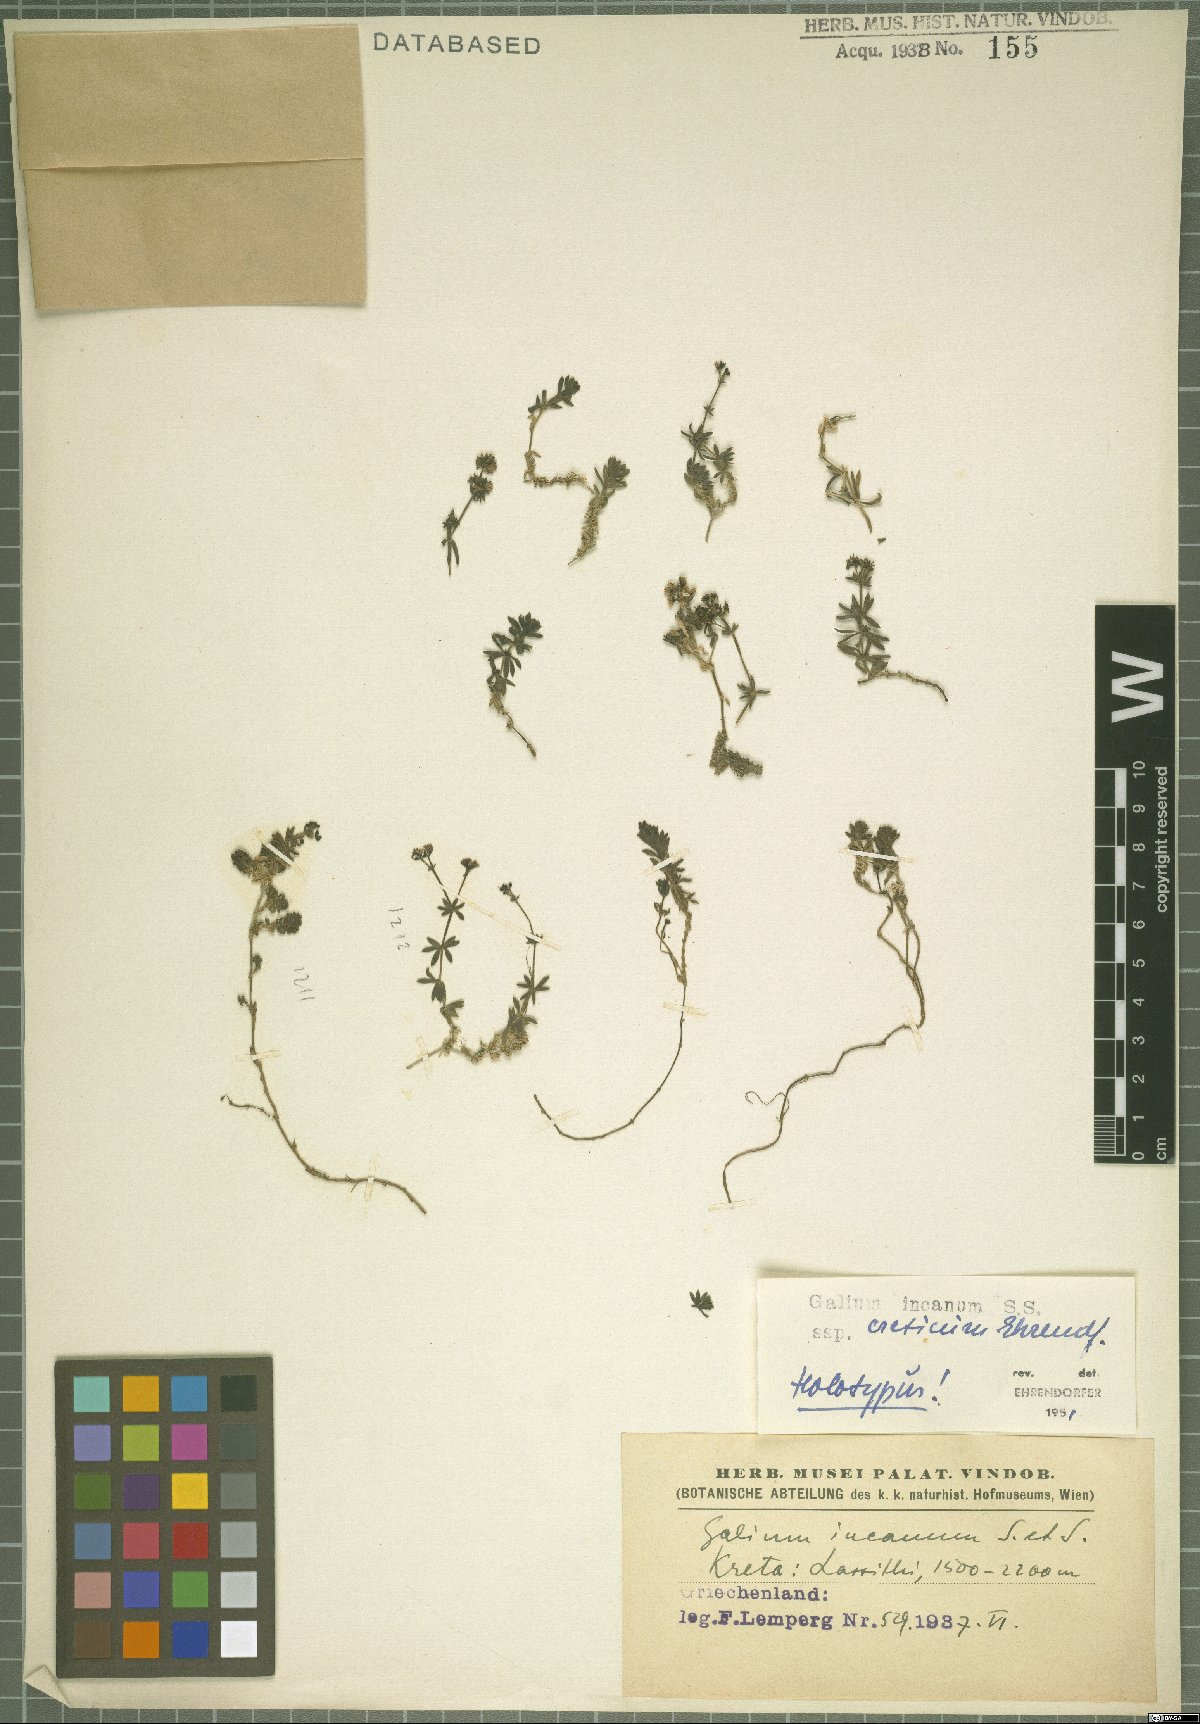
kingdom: Plantae
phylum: Tracheophyta
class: Magnoliopsida
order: Gentianales
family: Rubiaceae
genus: Galium
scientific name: Galium incanum
